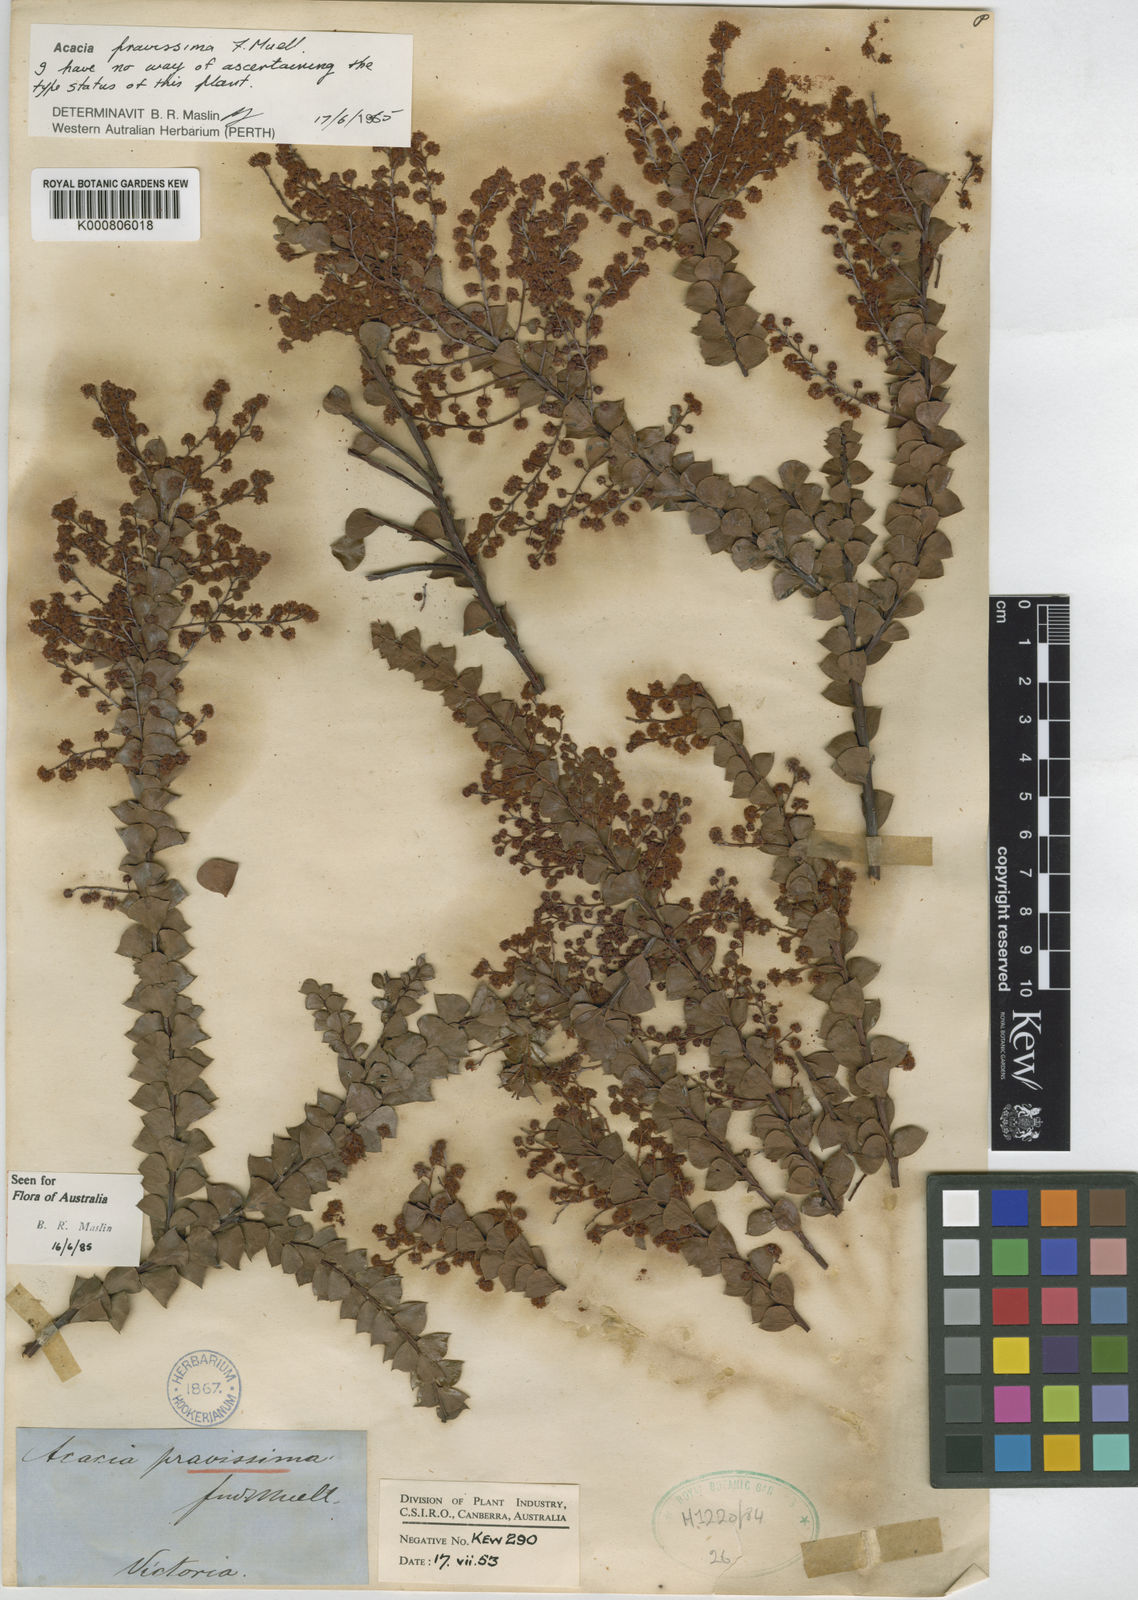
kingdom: Plantae
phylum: Tracheophyta
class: Magnoliopsida
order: Fabales
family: Fabaceae
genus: Acacia
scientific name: Acacia
